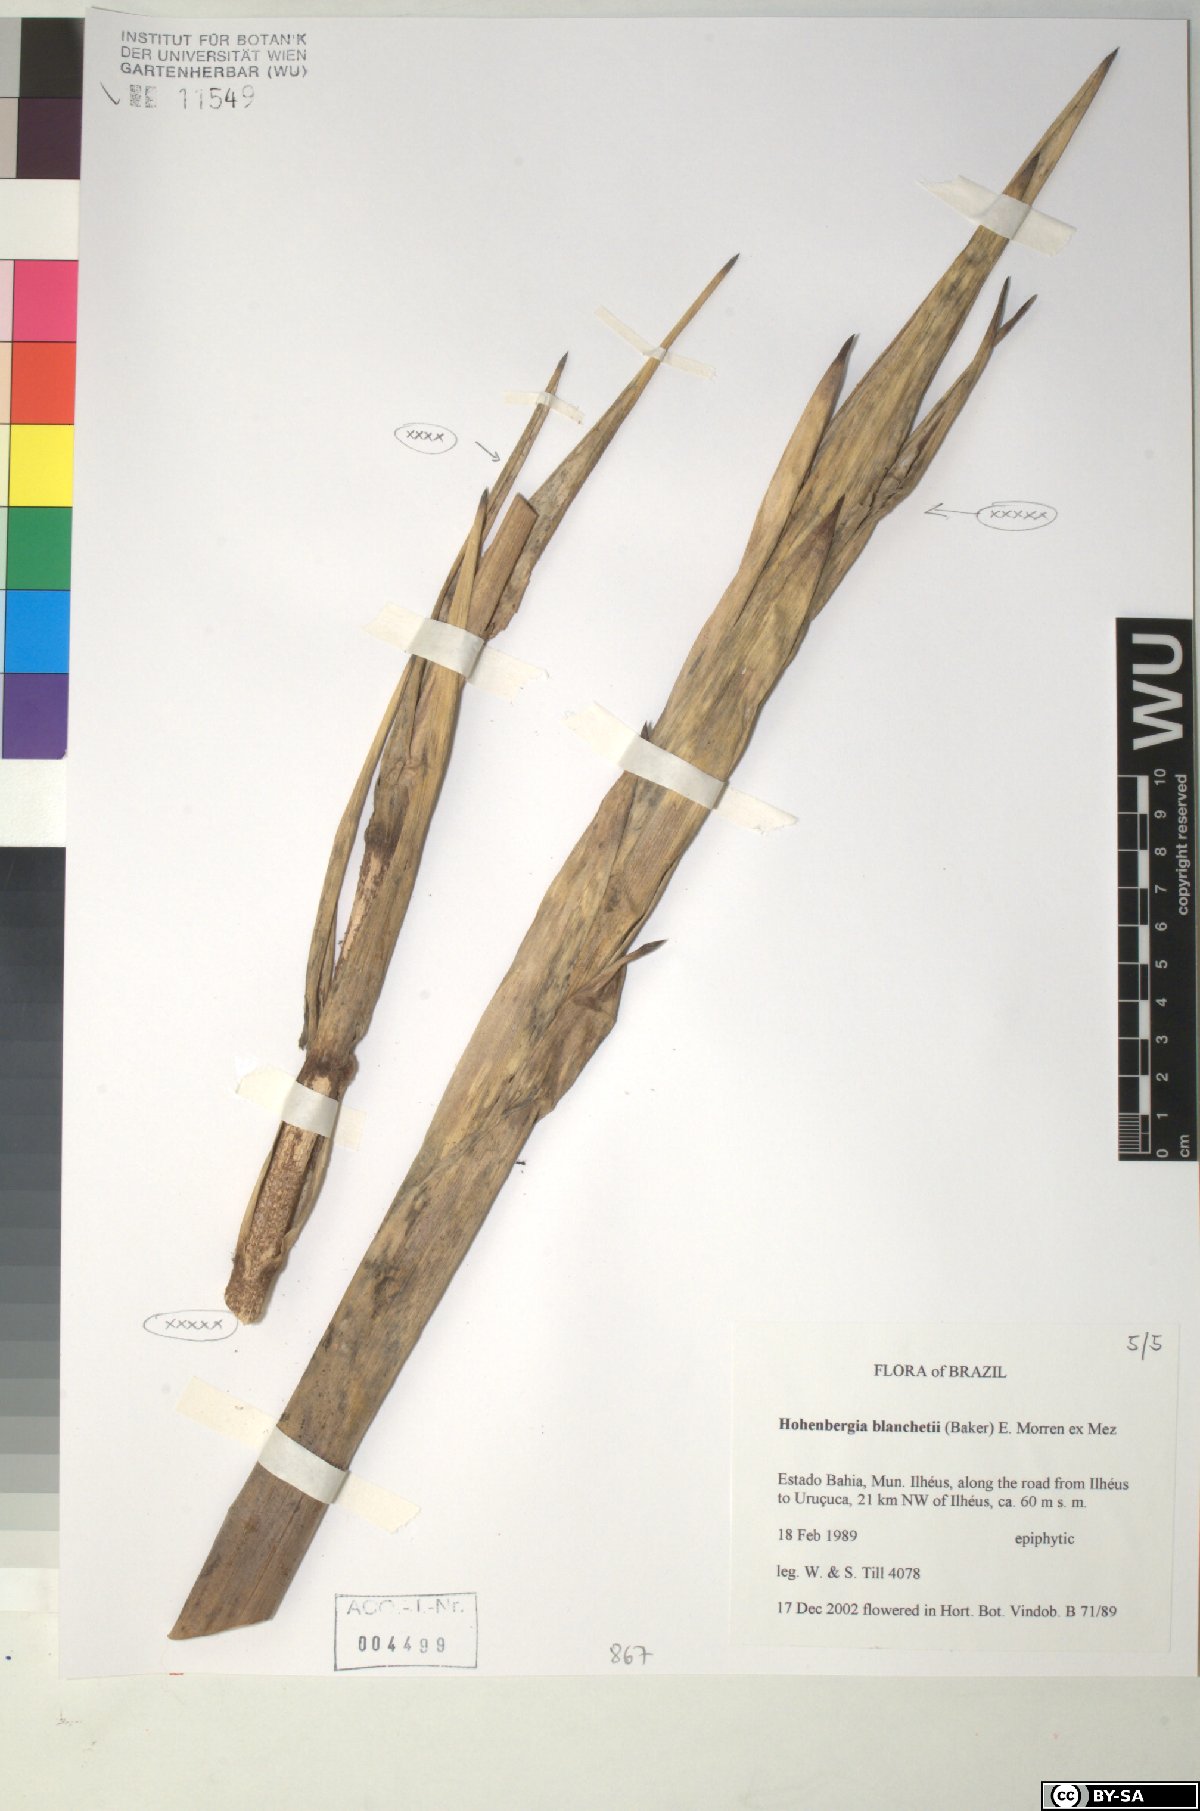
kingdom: Plantae
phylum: Tracheophyta
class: Liliopsida
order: Poales
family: Bromeliaceae
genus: Hohenbergia
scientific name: Hohenbergia blanchetii
